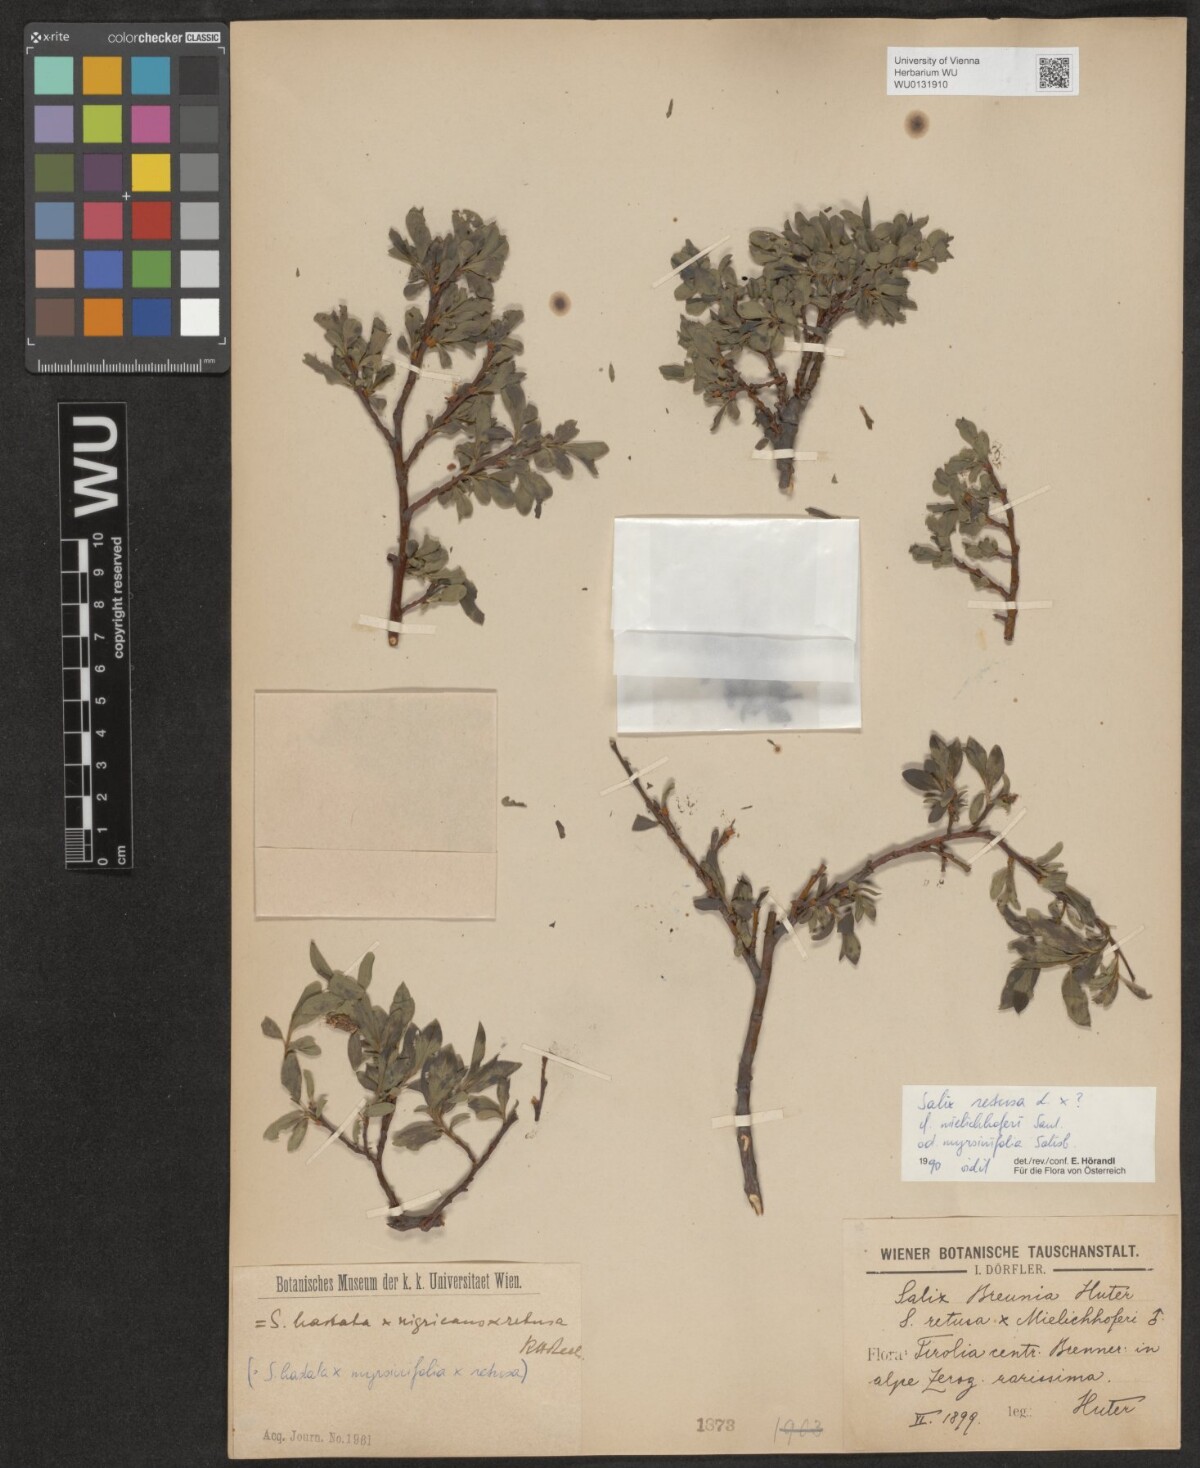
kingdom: Plantae
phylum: Tracheophyta
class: Magnoliopsida
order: Malpighiales
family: Salicaceae
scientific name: Salicaceae
